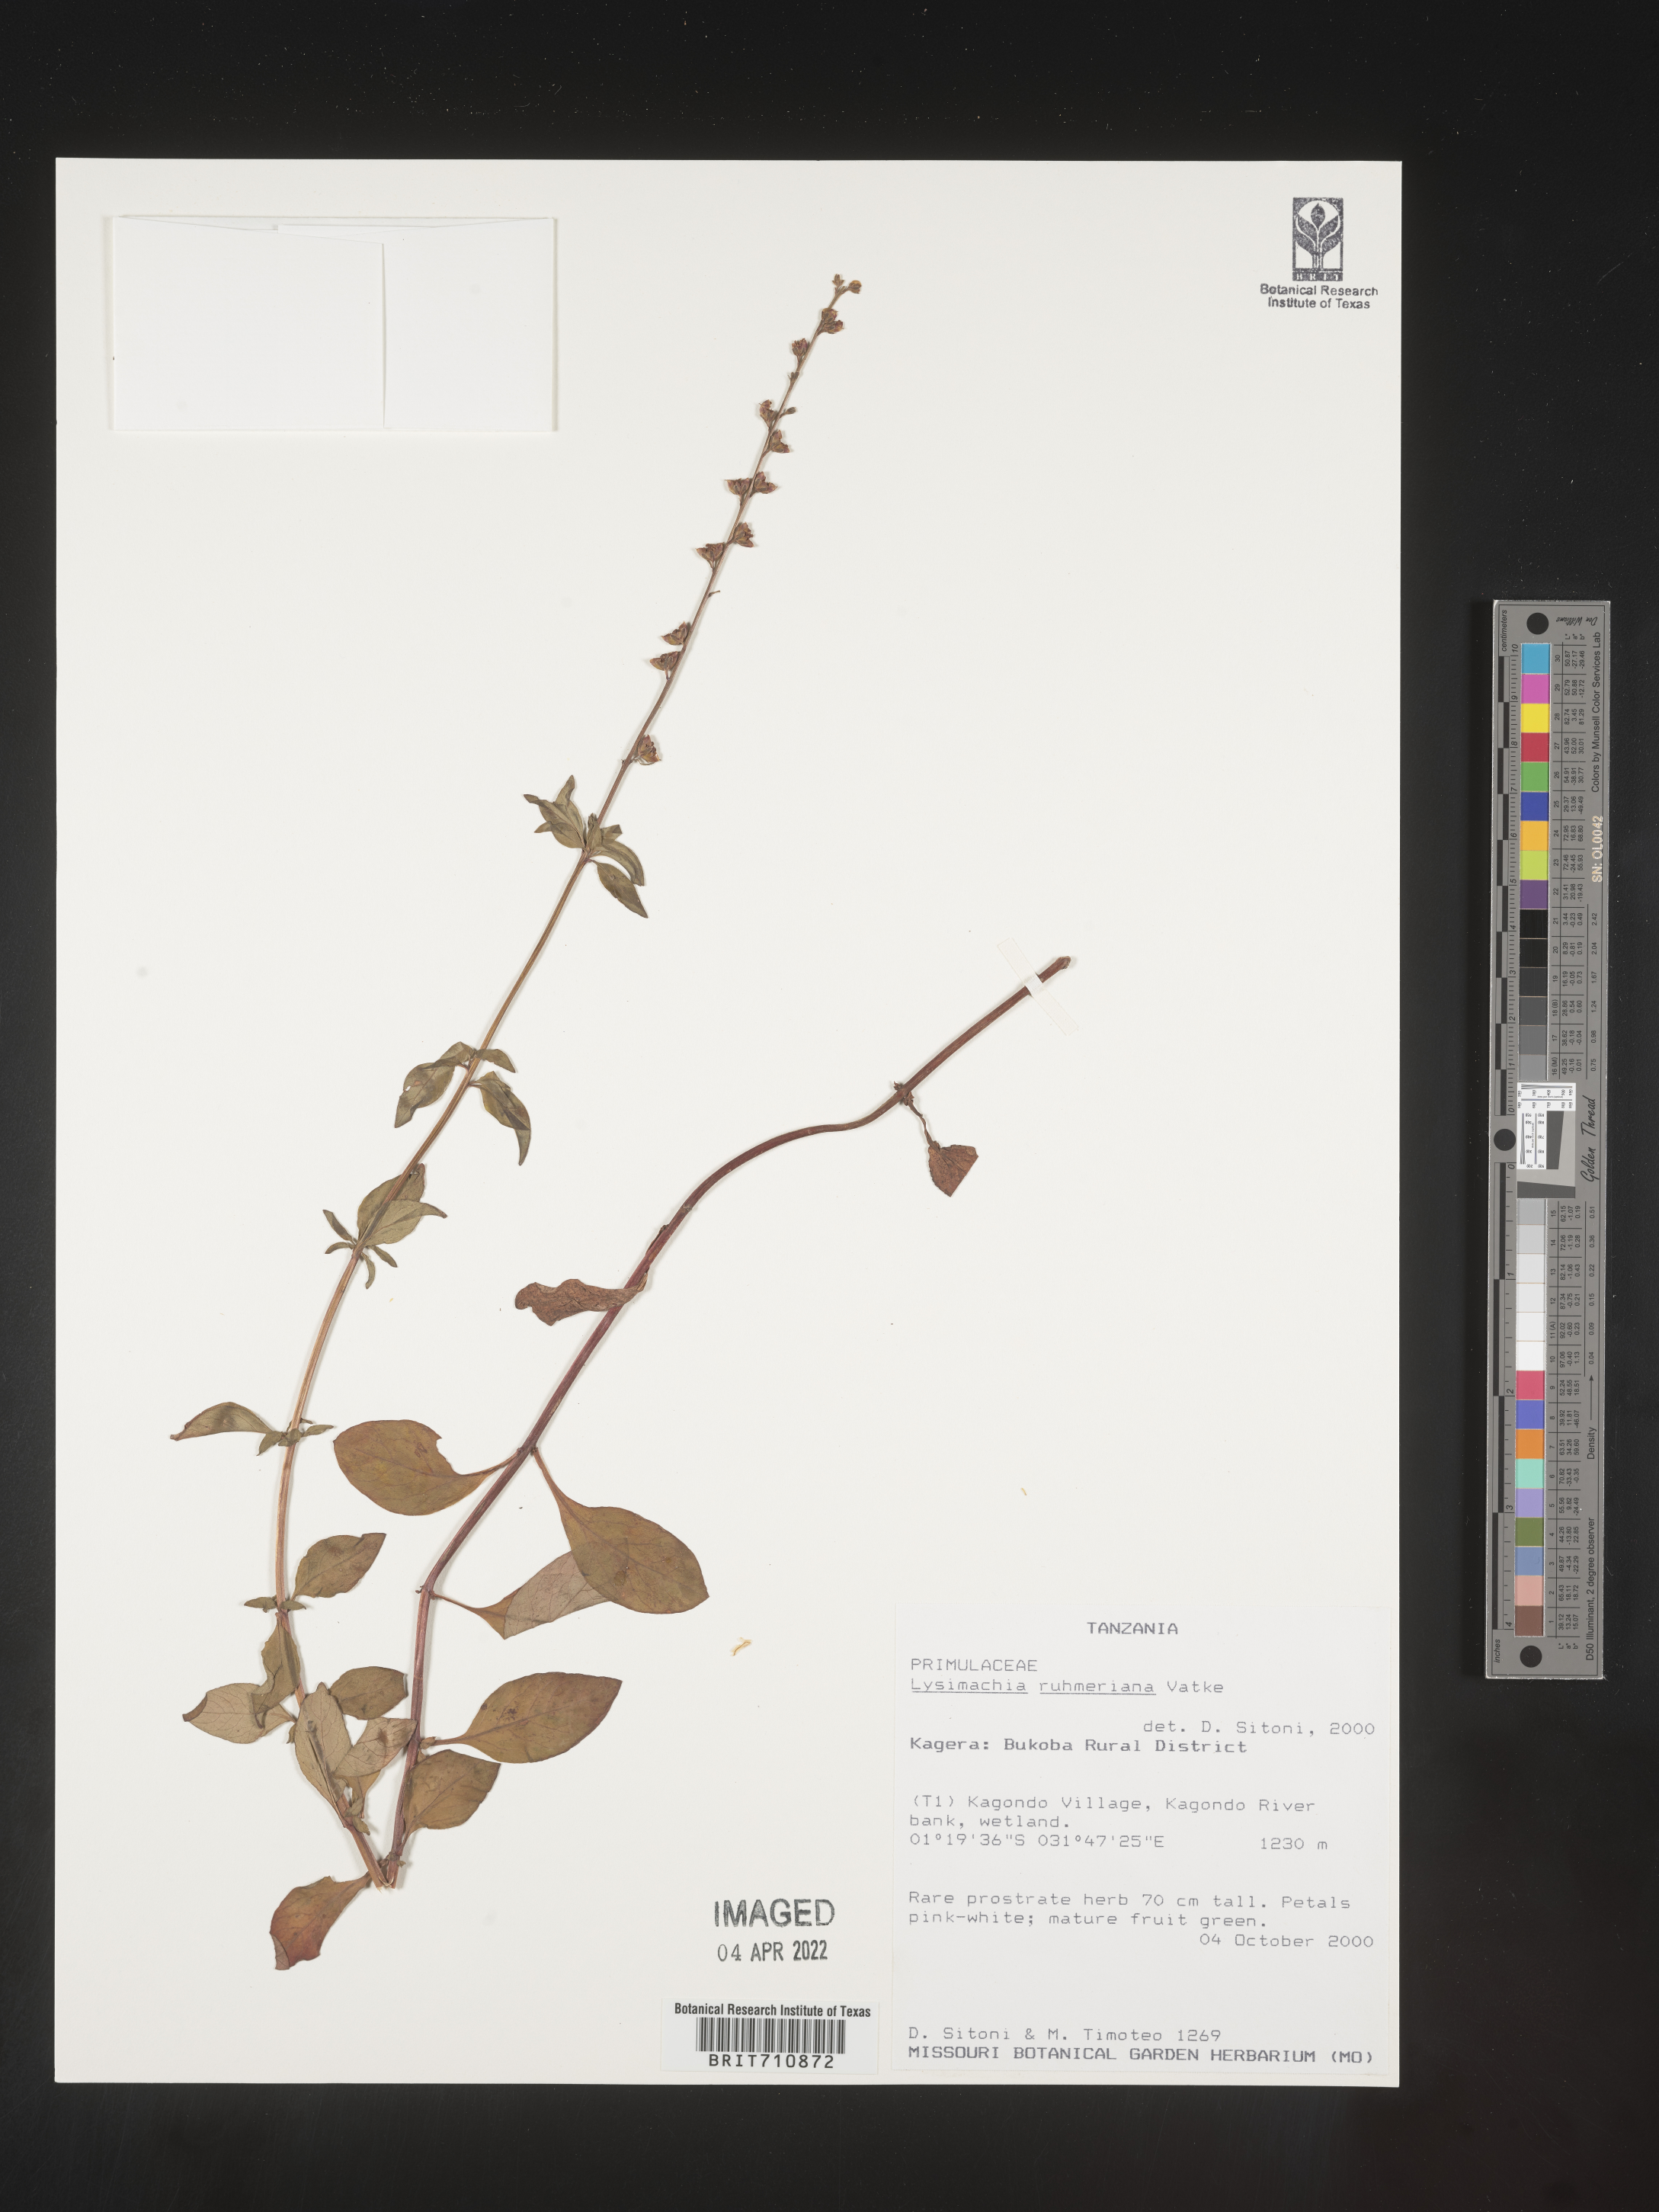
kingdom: Plantae
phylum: Tracheophyta
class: Magnoliopsida
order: Ericales
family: Primulaceae
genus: Lysimachia
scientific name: Lysimachia
